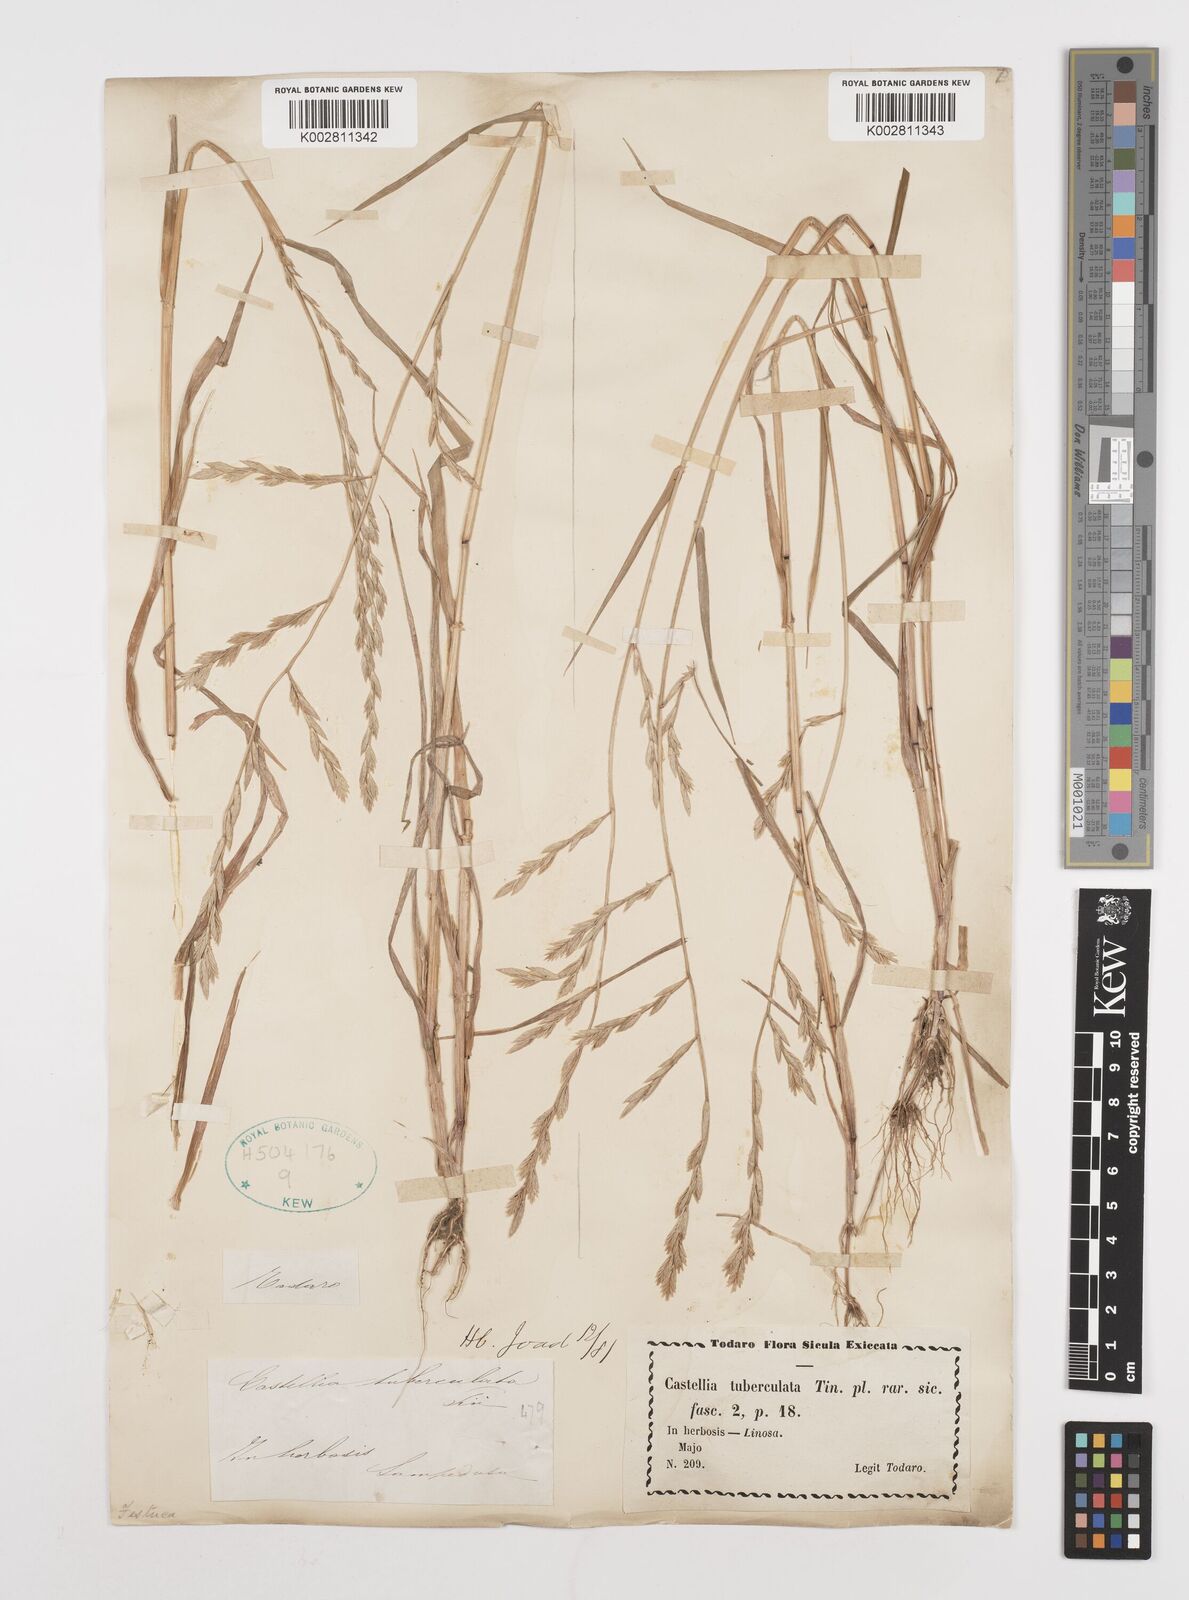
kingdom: Plantae
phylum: Tracheophyta
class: Liliopsida
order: Poales
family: Poaceae
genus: Castellia
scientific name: Castellia tuberculosa
